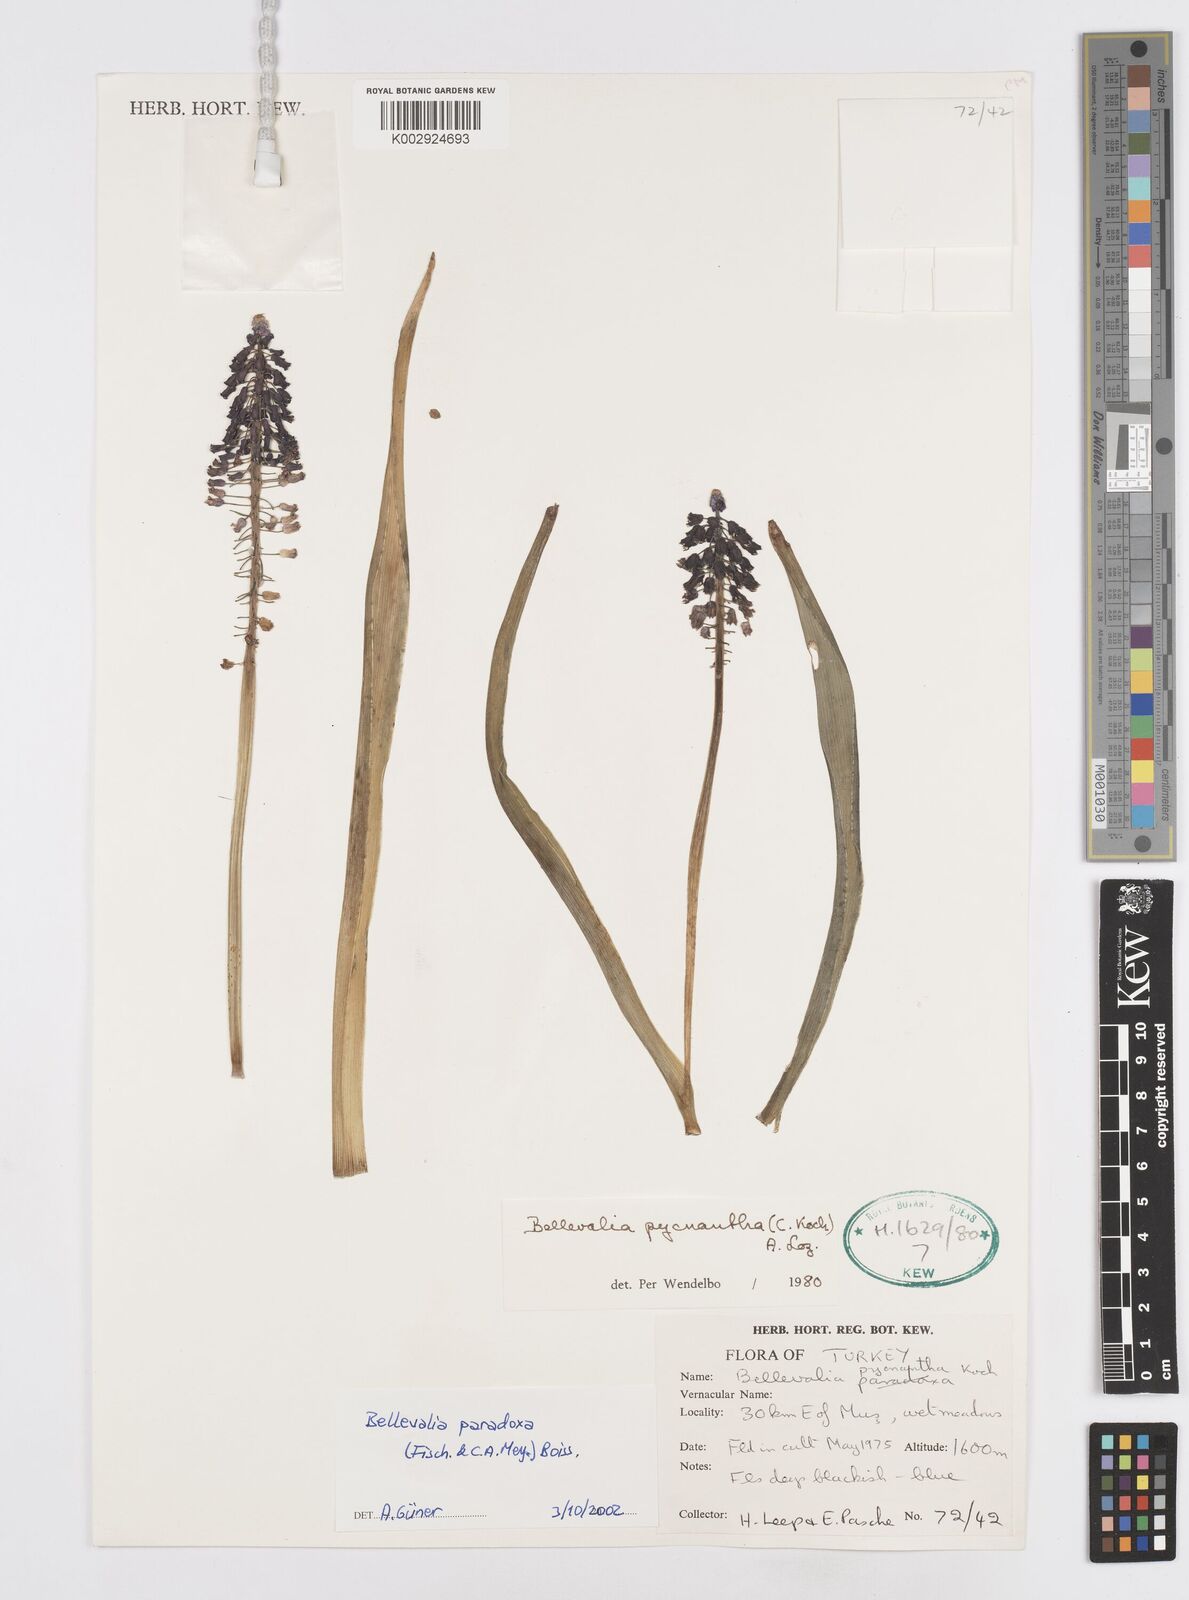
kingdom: Plantae
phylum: Tracheophyta
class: Liliopsida
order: Asparagales
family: Asparagaceae
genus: Bellevalia
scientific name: Bellevalia paradoxa
